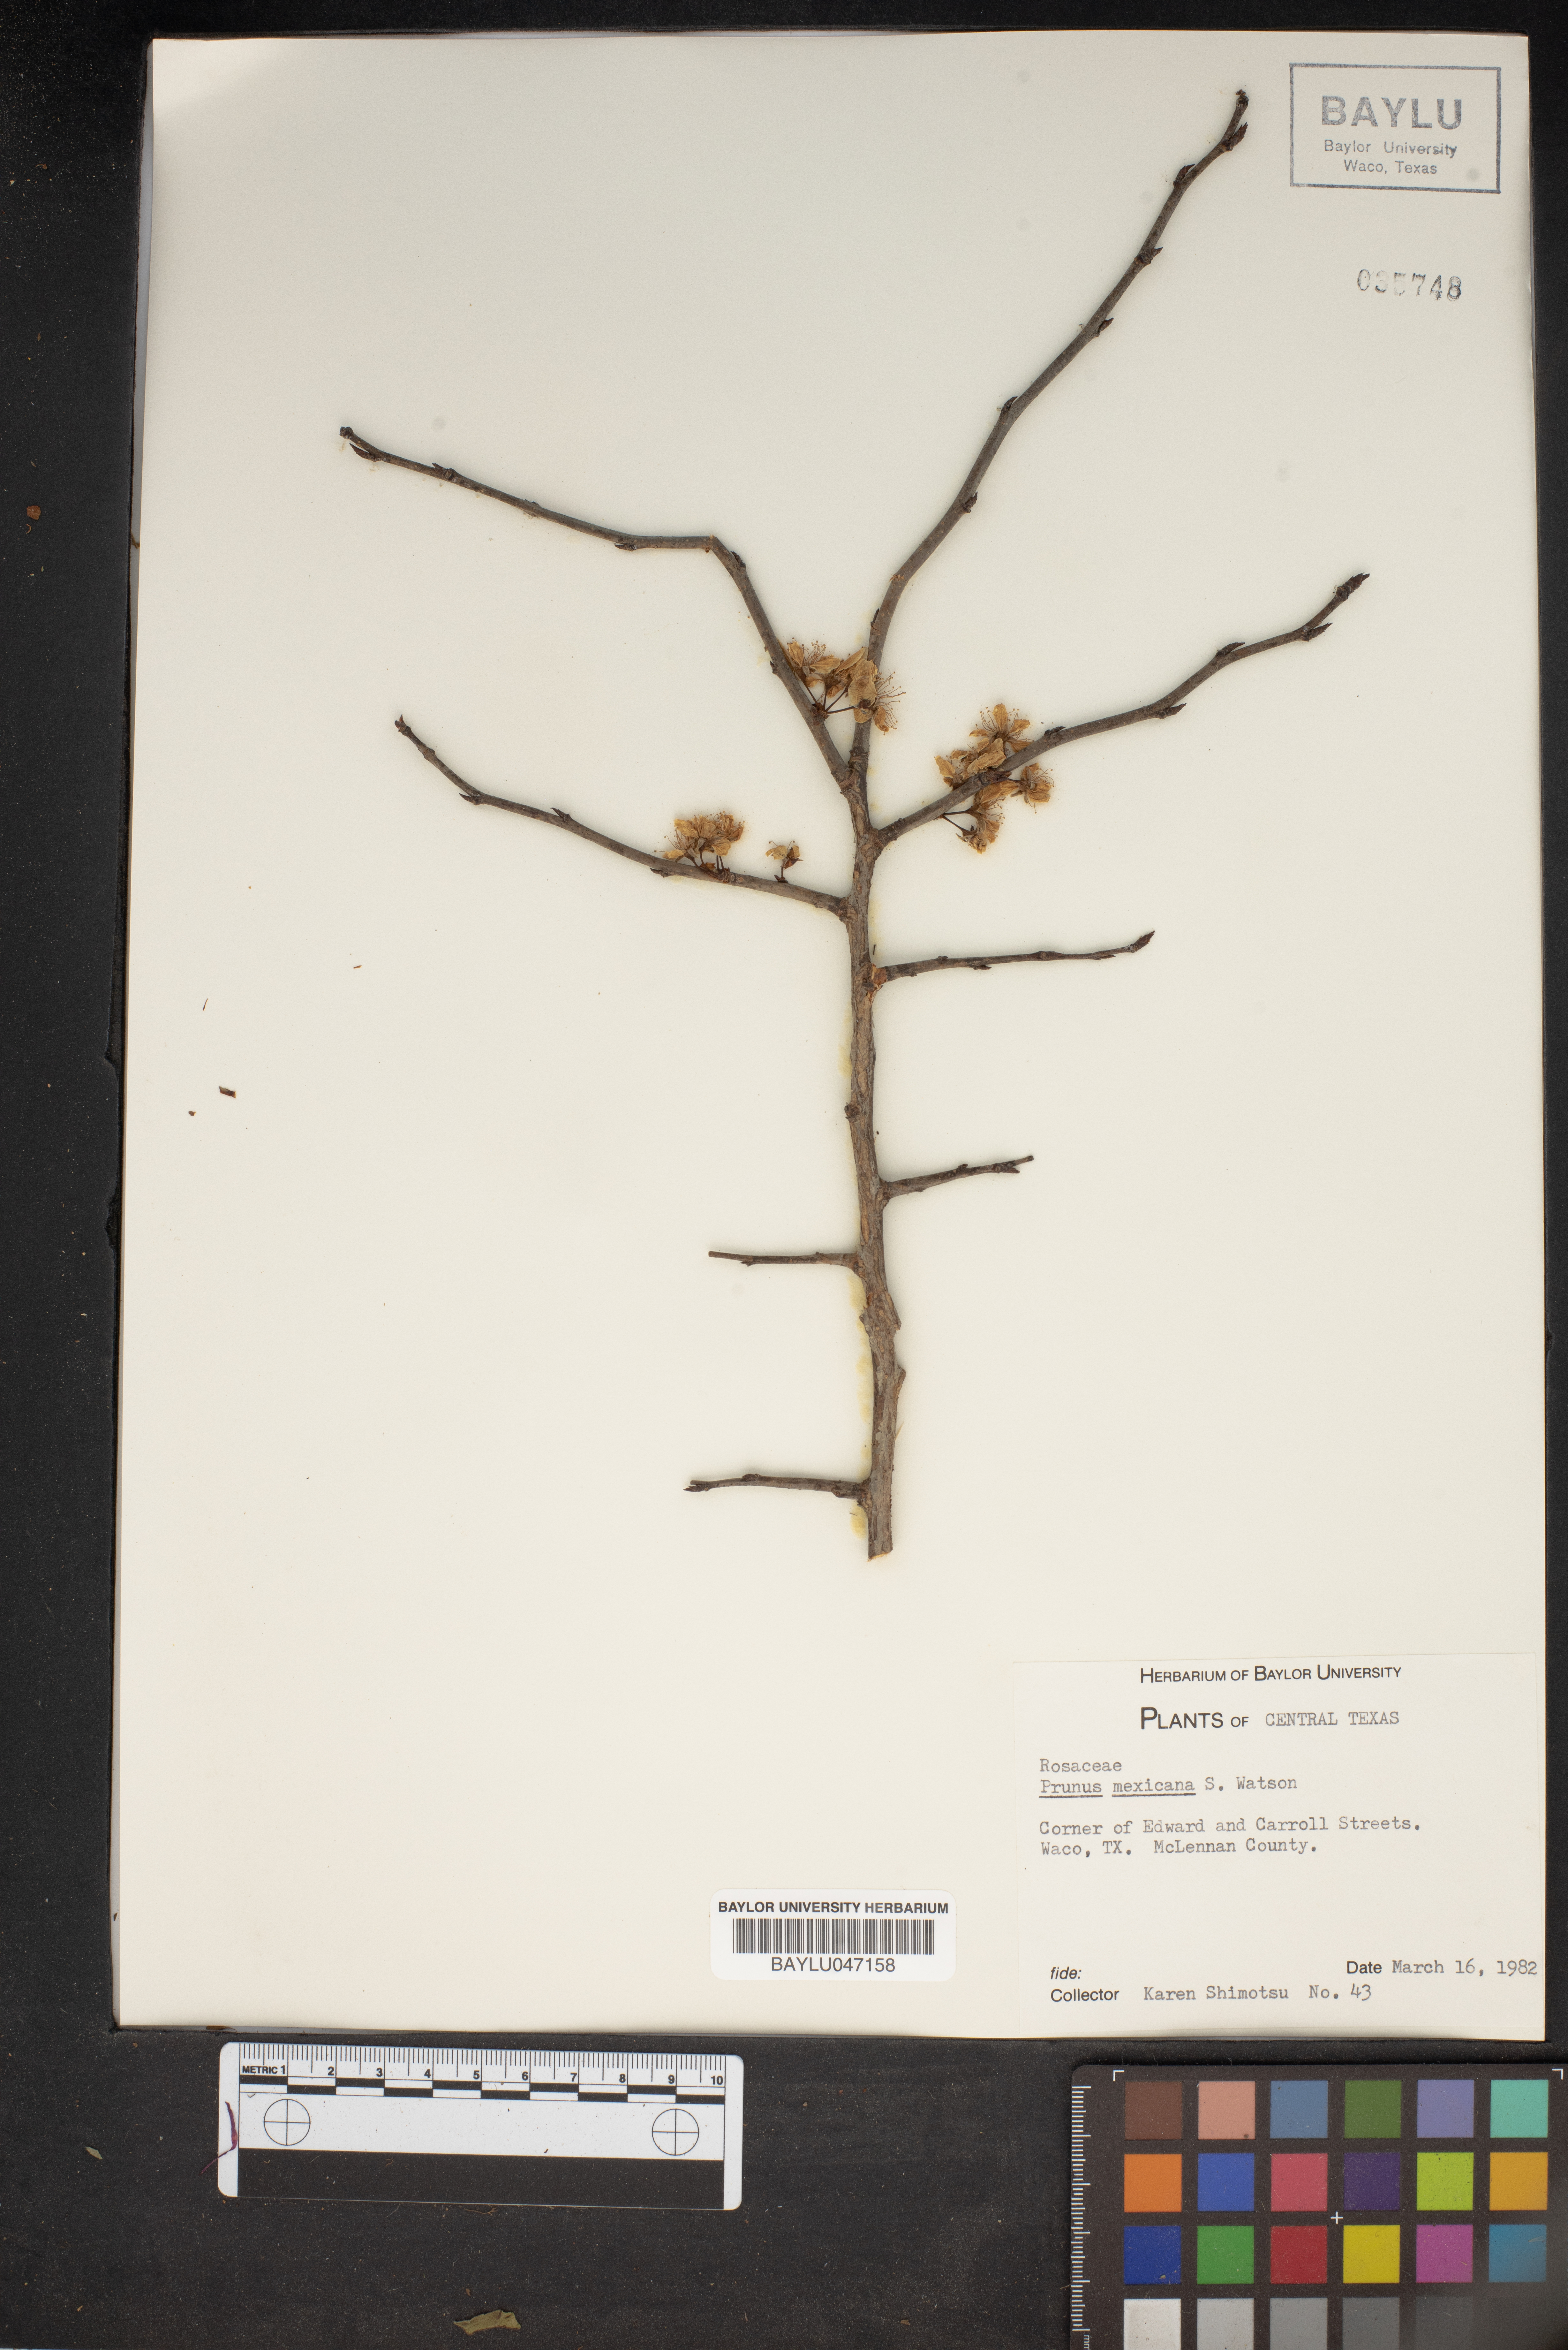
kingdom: Plantae
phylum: Tracheophyta
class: Magnoliopsida
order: Rosales
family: Rosaceae
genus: Prunus
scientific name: Prunus mexicana
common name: Mexican plum
